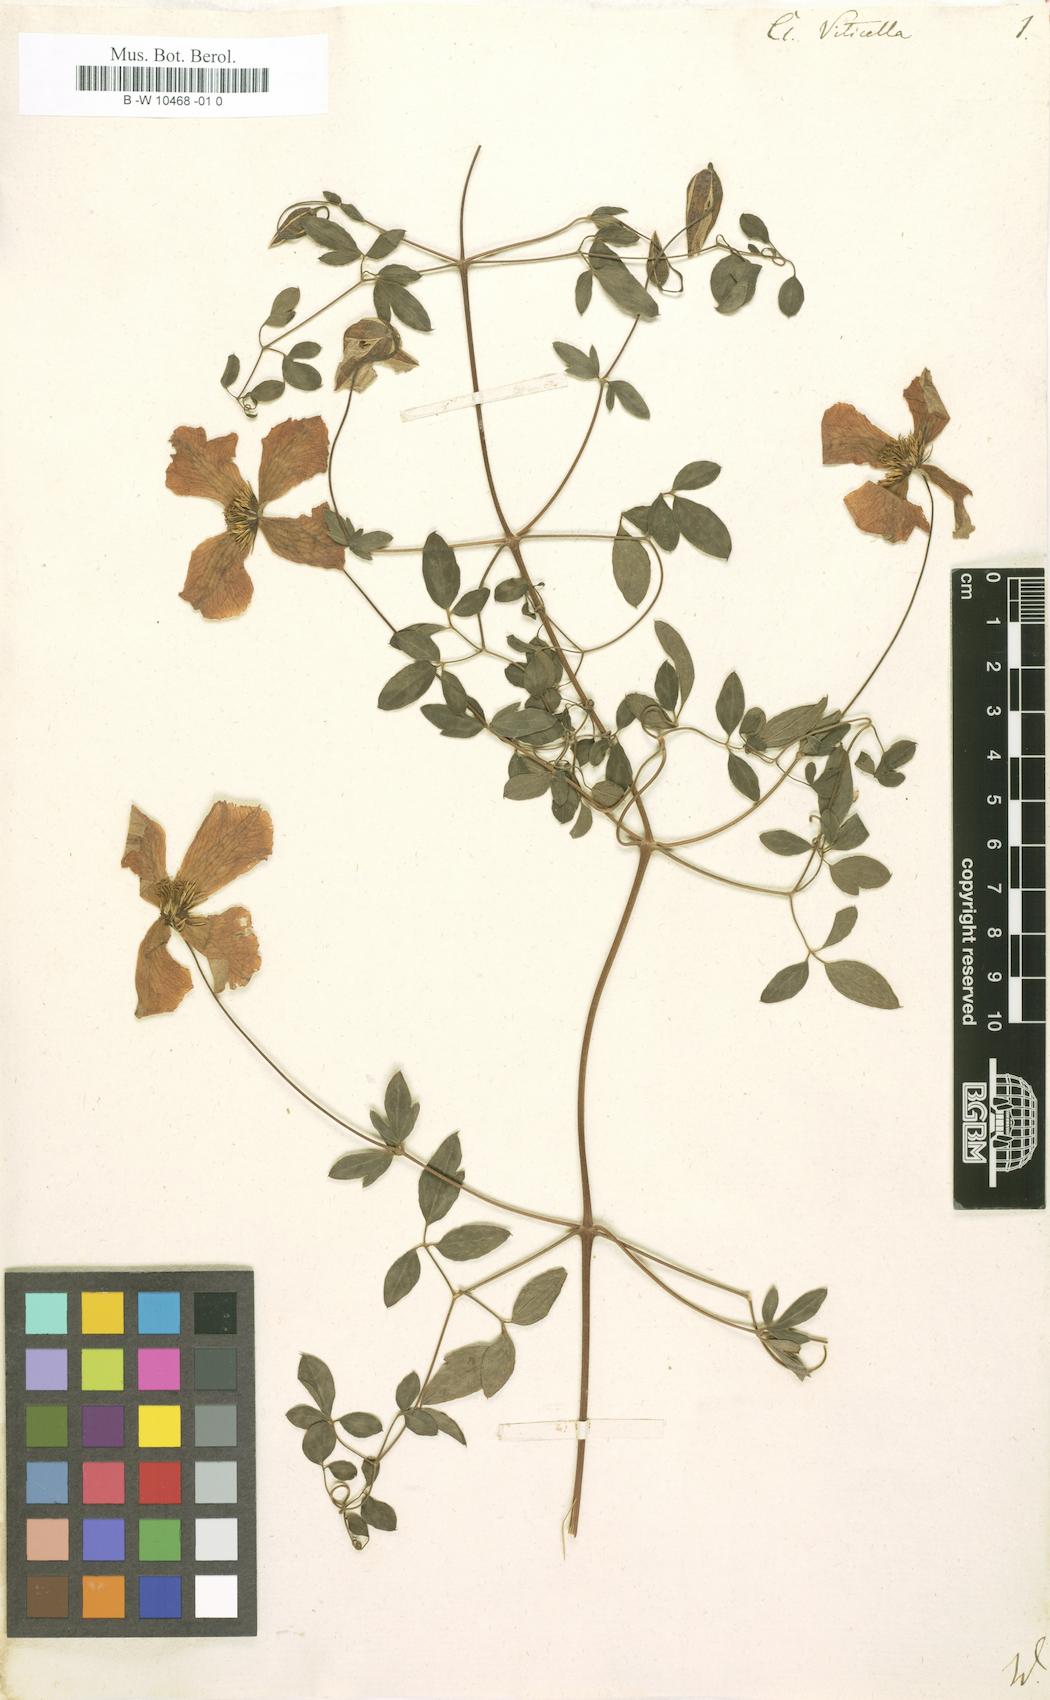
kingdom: Plantae
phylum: Tracheophyta
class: Magnoliopsida
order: Ranunculales
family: Ranunculaceae
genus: Clematis
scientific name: Clematis viticella
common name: Purple clematis
